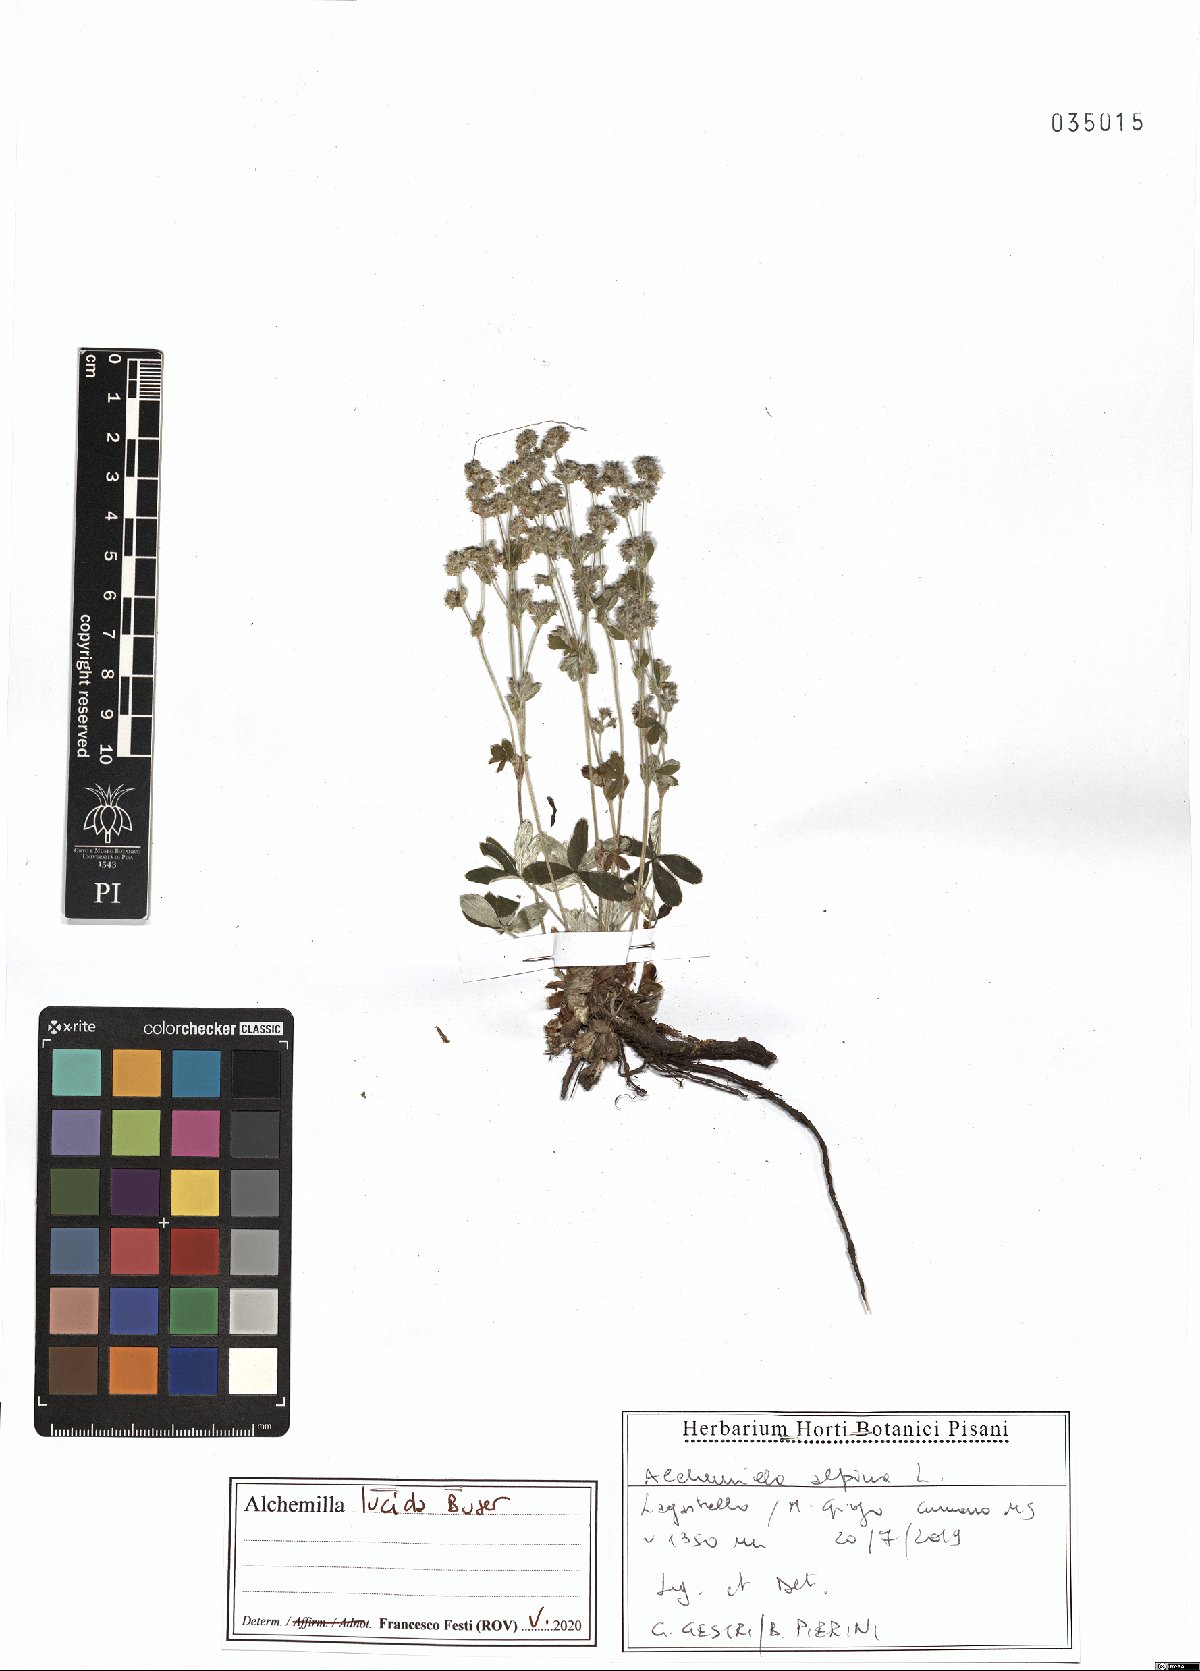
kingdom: Plantae
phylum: Tracheophyta
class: Magnoliopsida
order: Rosales
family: Rosaceae
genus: Alchemilla
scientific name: Alchemilla lucida
